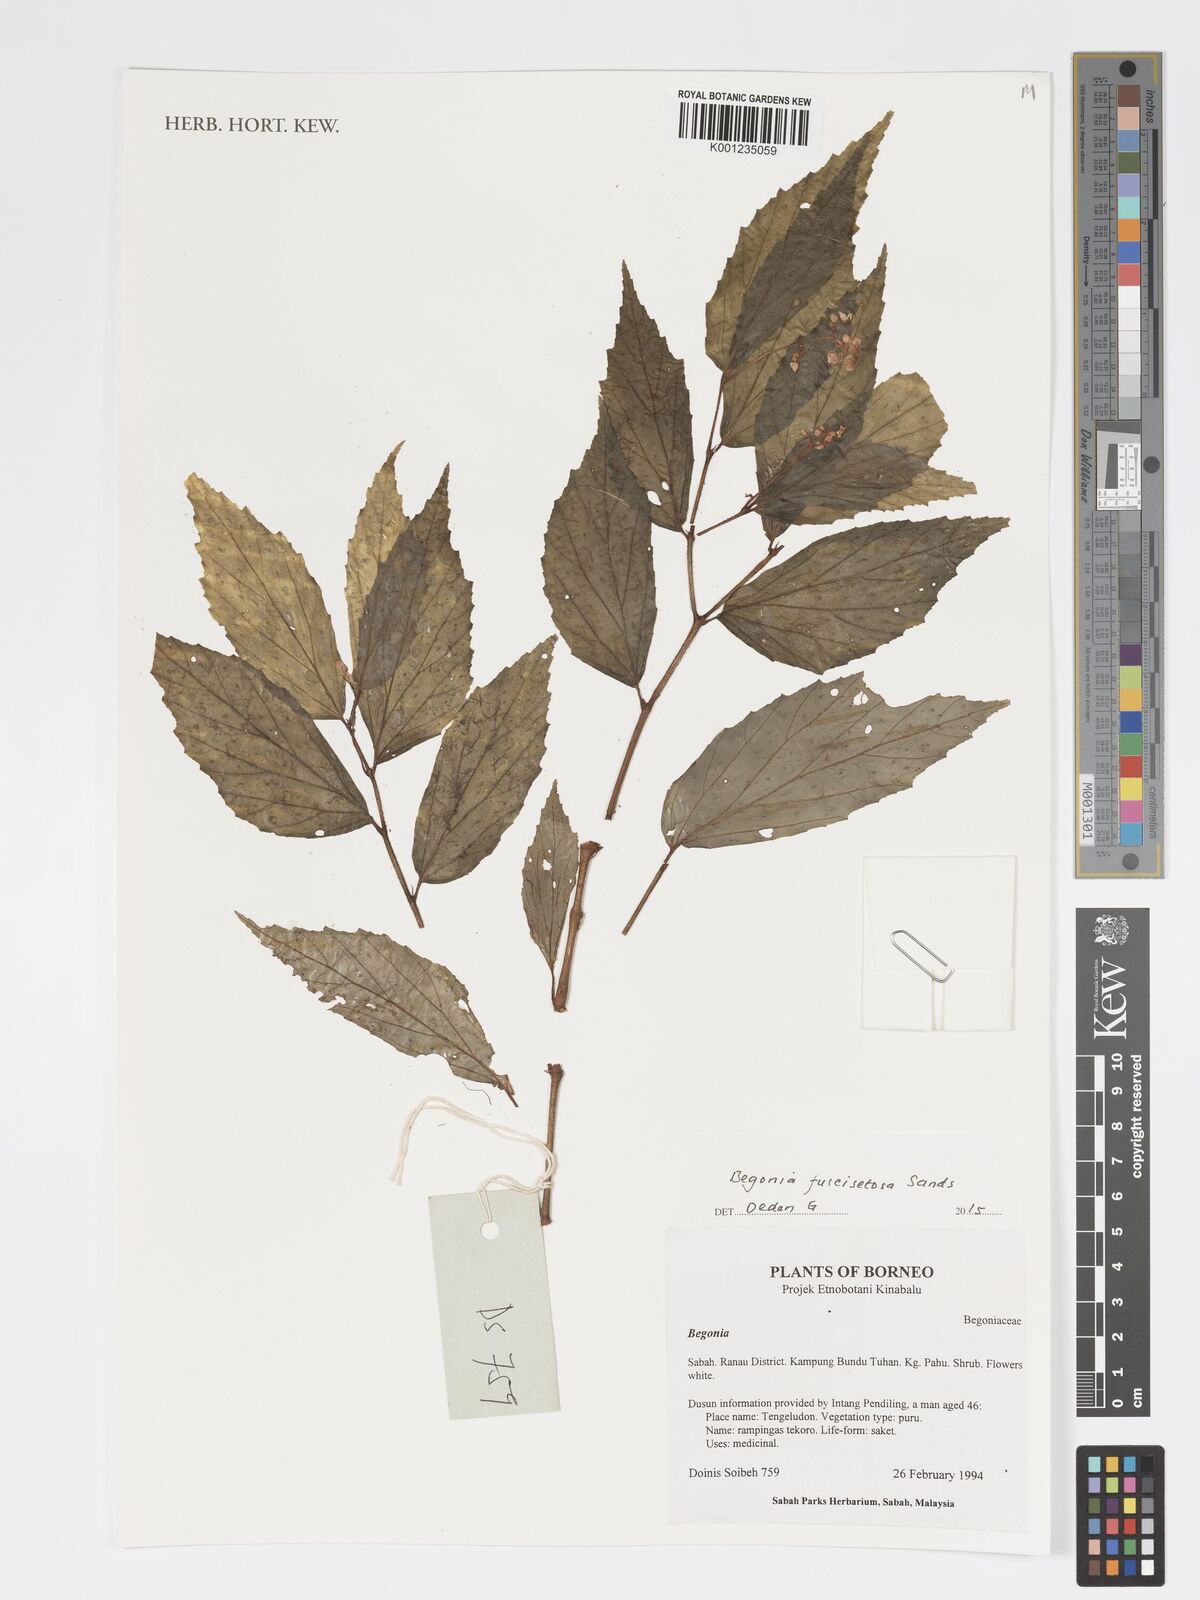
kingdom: Plantae
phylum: Tracheophyta
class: Magnoliopsida
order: Cucurbitales
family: Begoniaceae
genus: Begonia
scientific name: Begonia fuscisetosa
